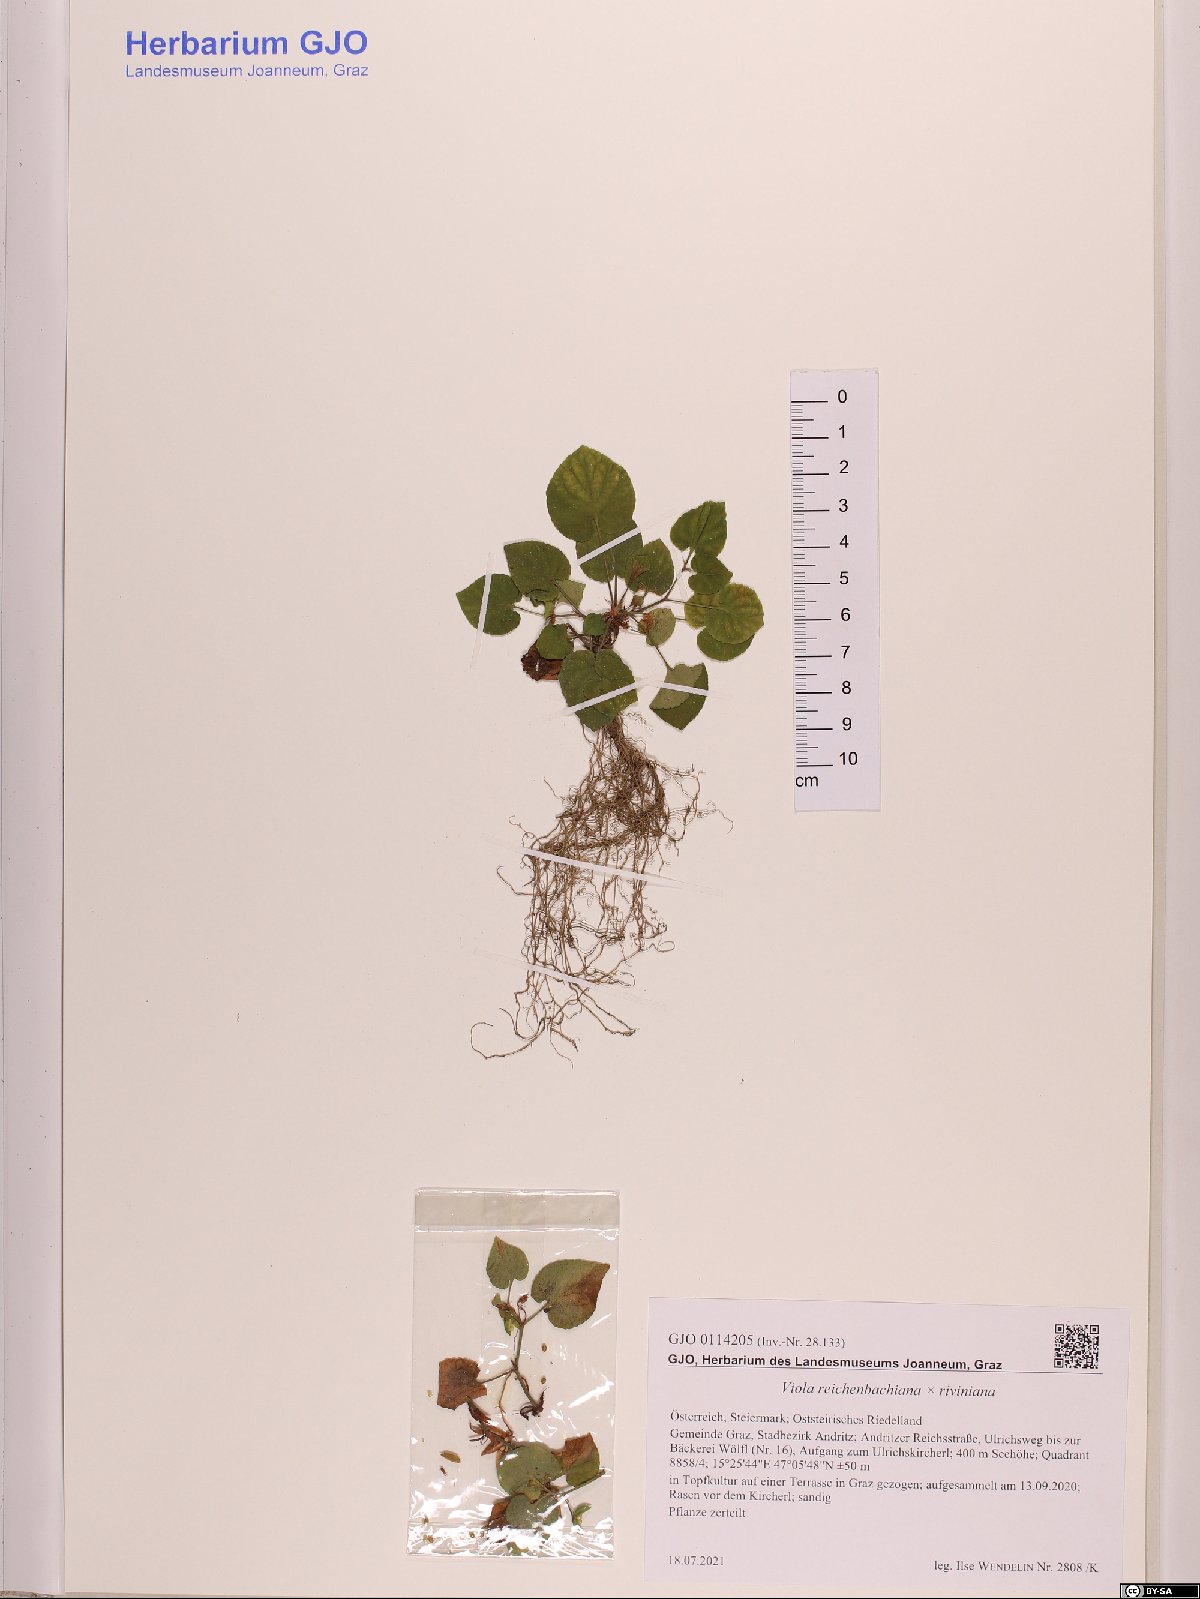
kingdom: Plantae
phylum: Tracheophyta
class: Magnoliopsida
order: Malpighiales
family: Violaceae
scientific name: Violaceae
